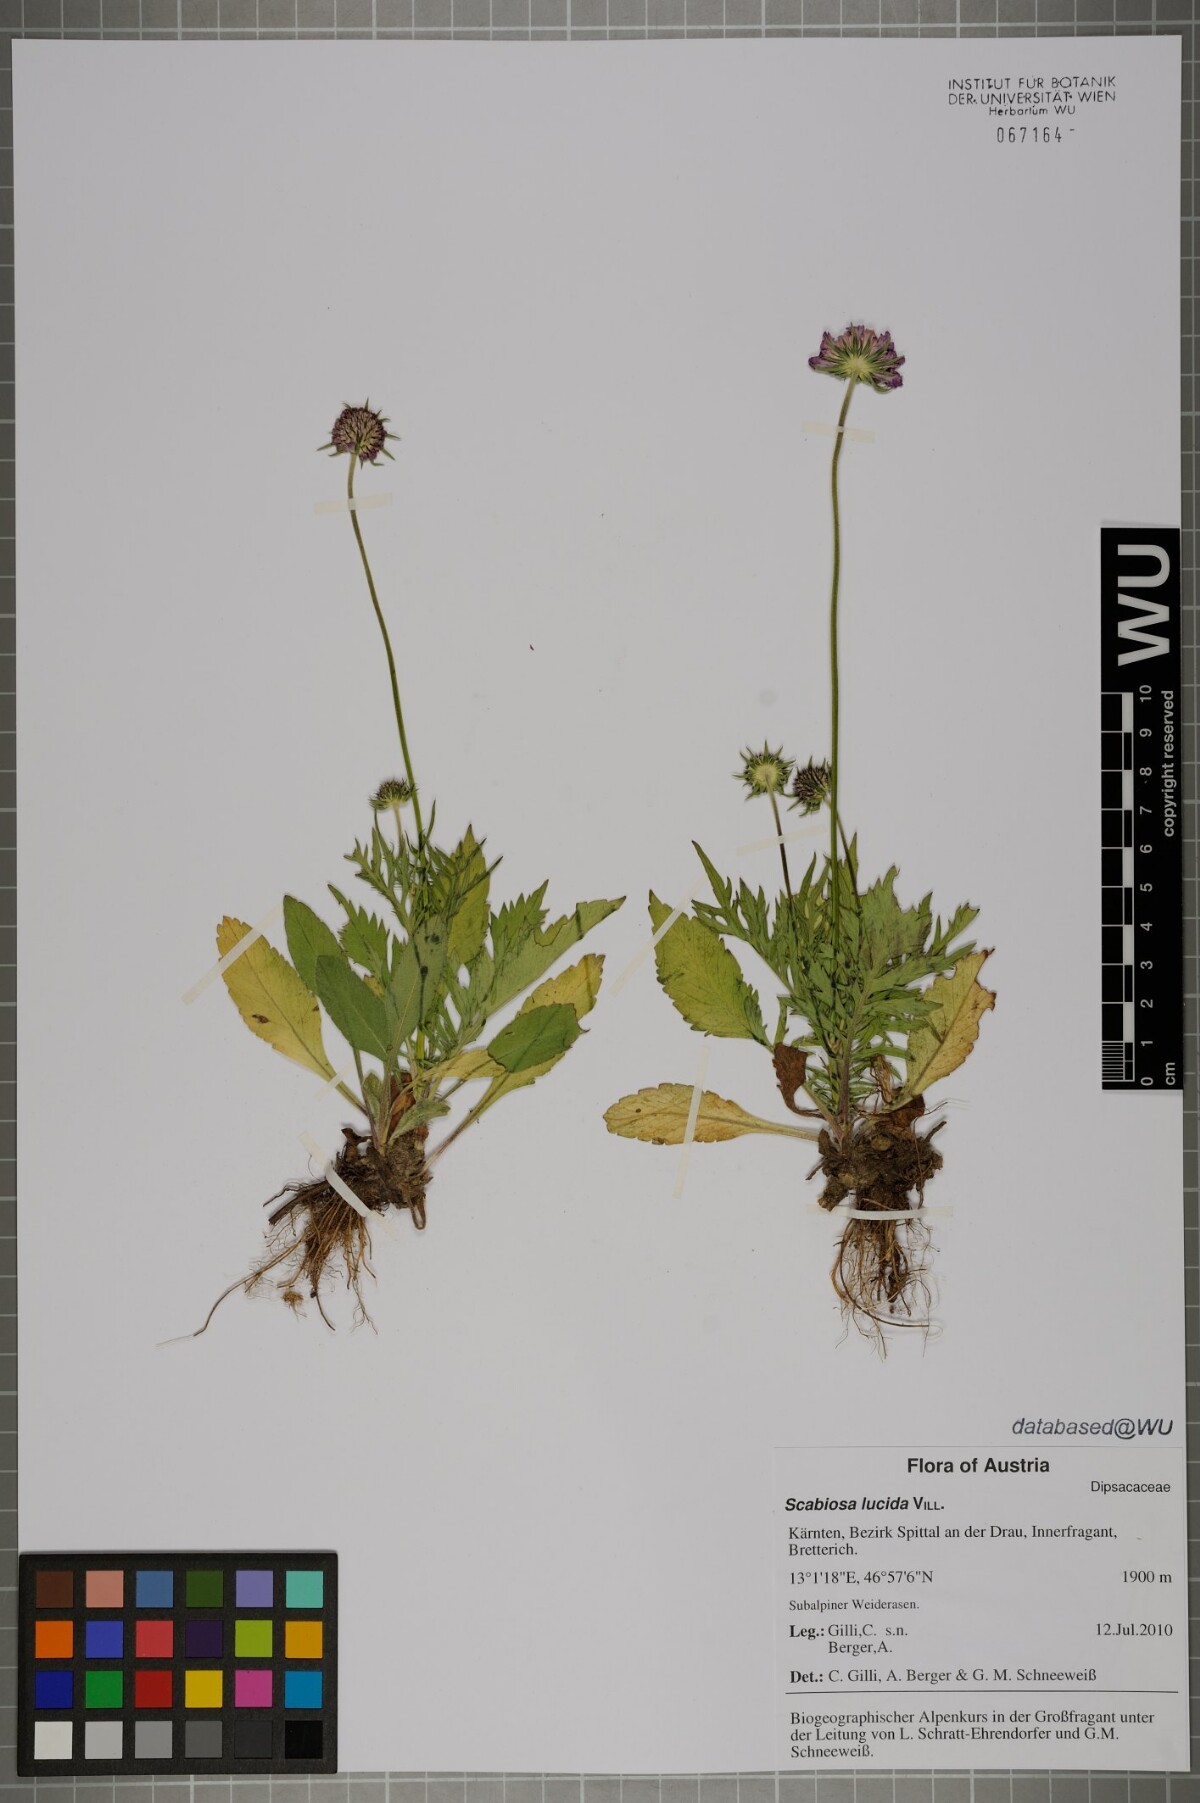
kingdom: Plantae
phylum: Tracheophyta
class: Magnoliopsida
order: Dipsacales
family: Caprifoliaceae
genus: Scabiosa
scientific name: Scabiosa lucida
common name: Shining scabious
